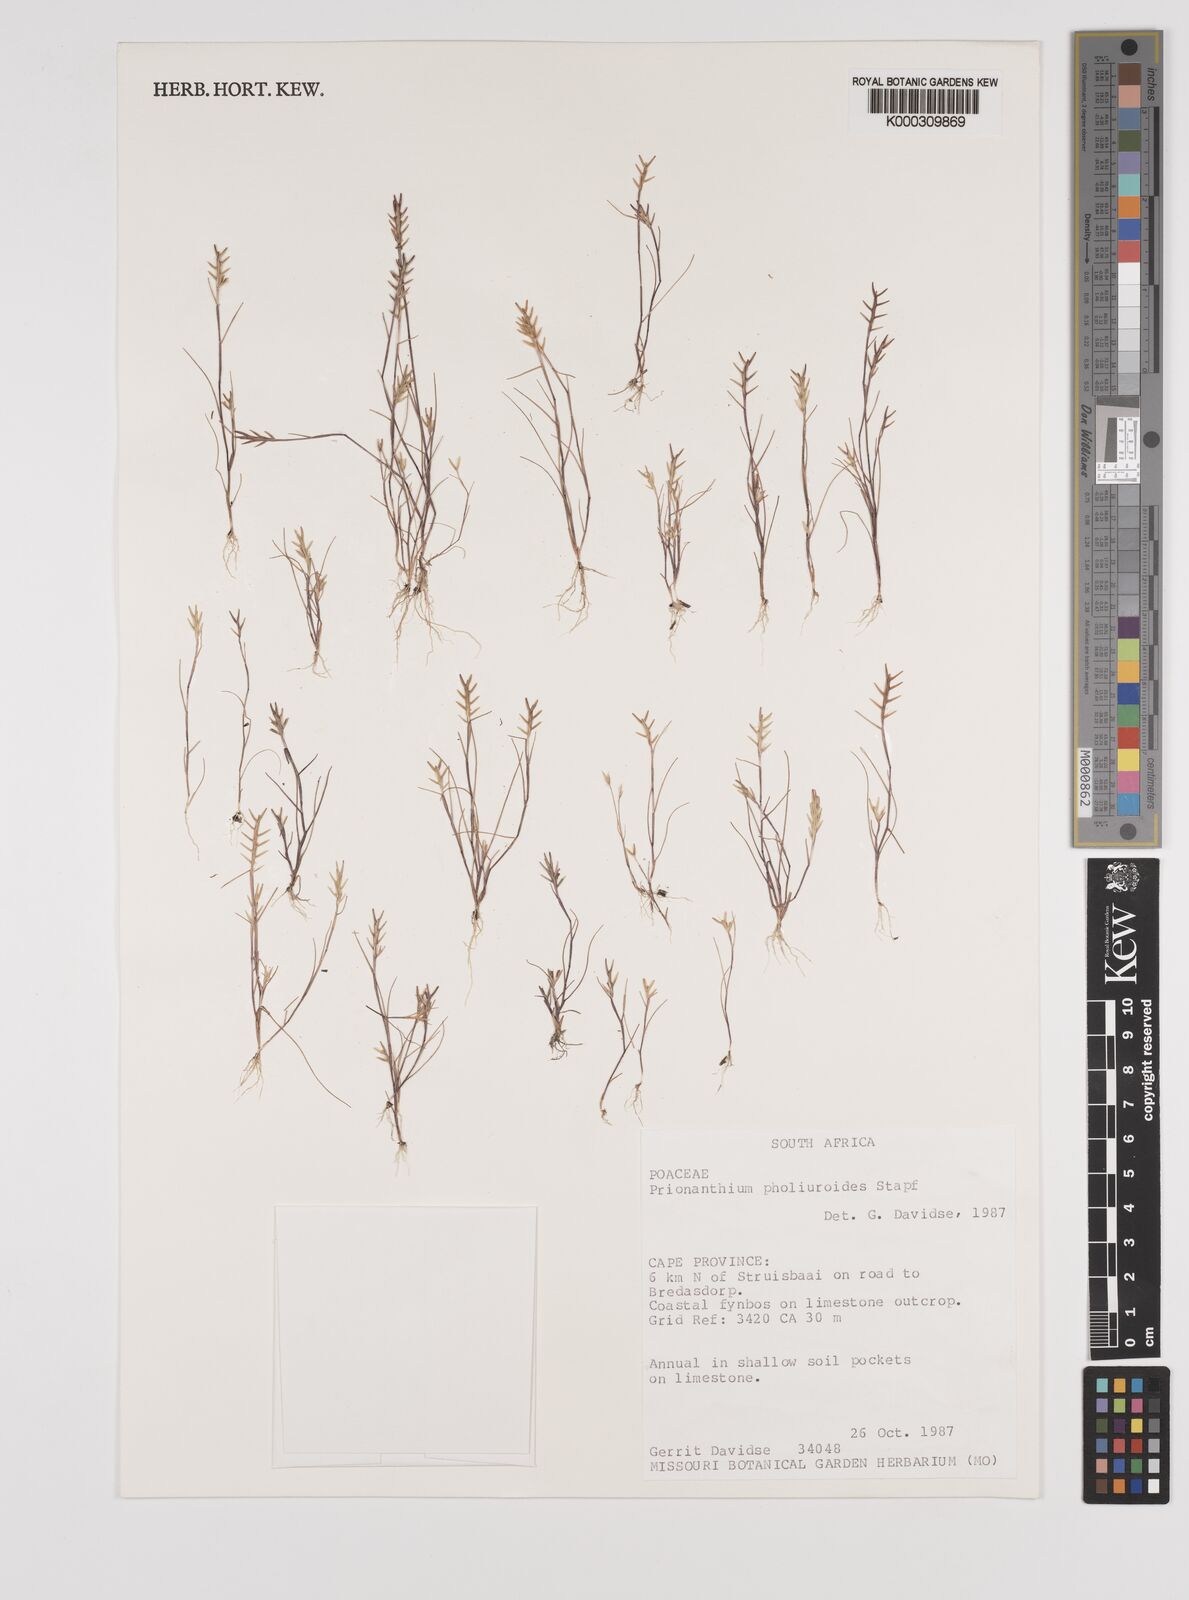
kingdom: Plantae
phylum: Tracheophyta
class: Liliopsida
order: Poales
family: Poaceae
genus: Pentameris
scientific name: Pentameris pholiuroides
